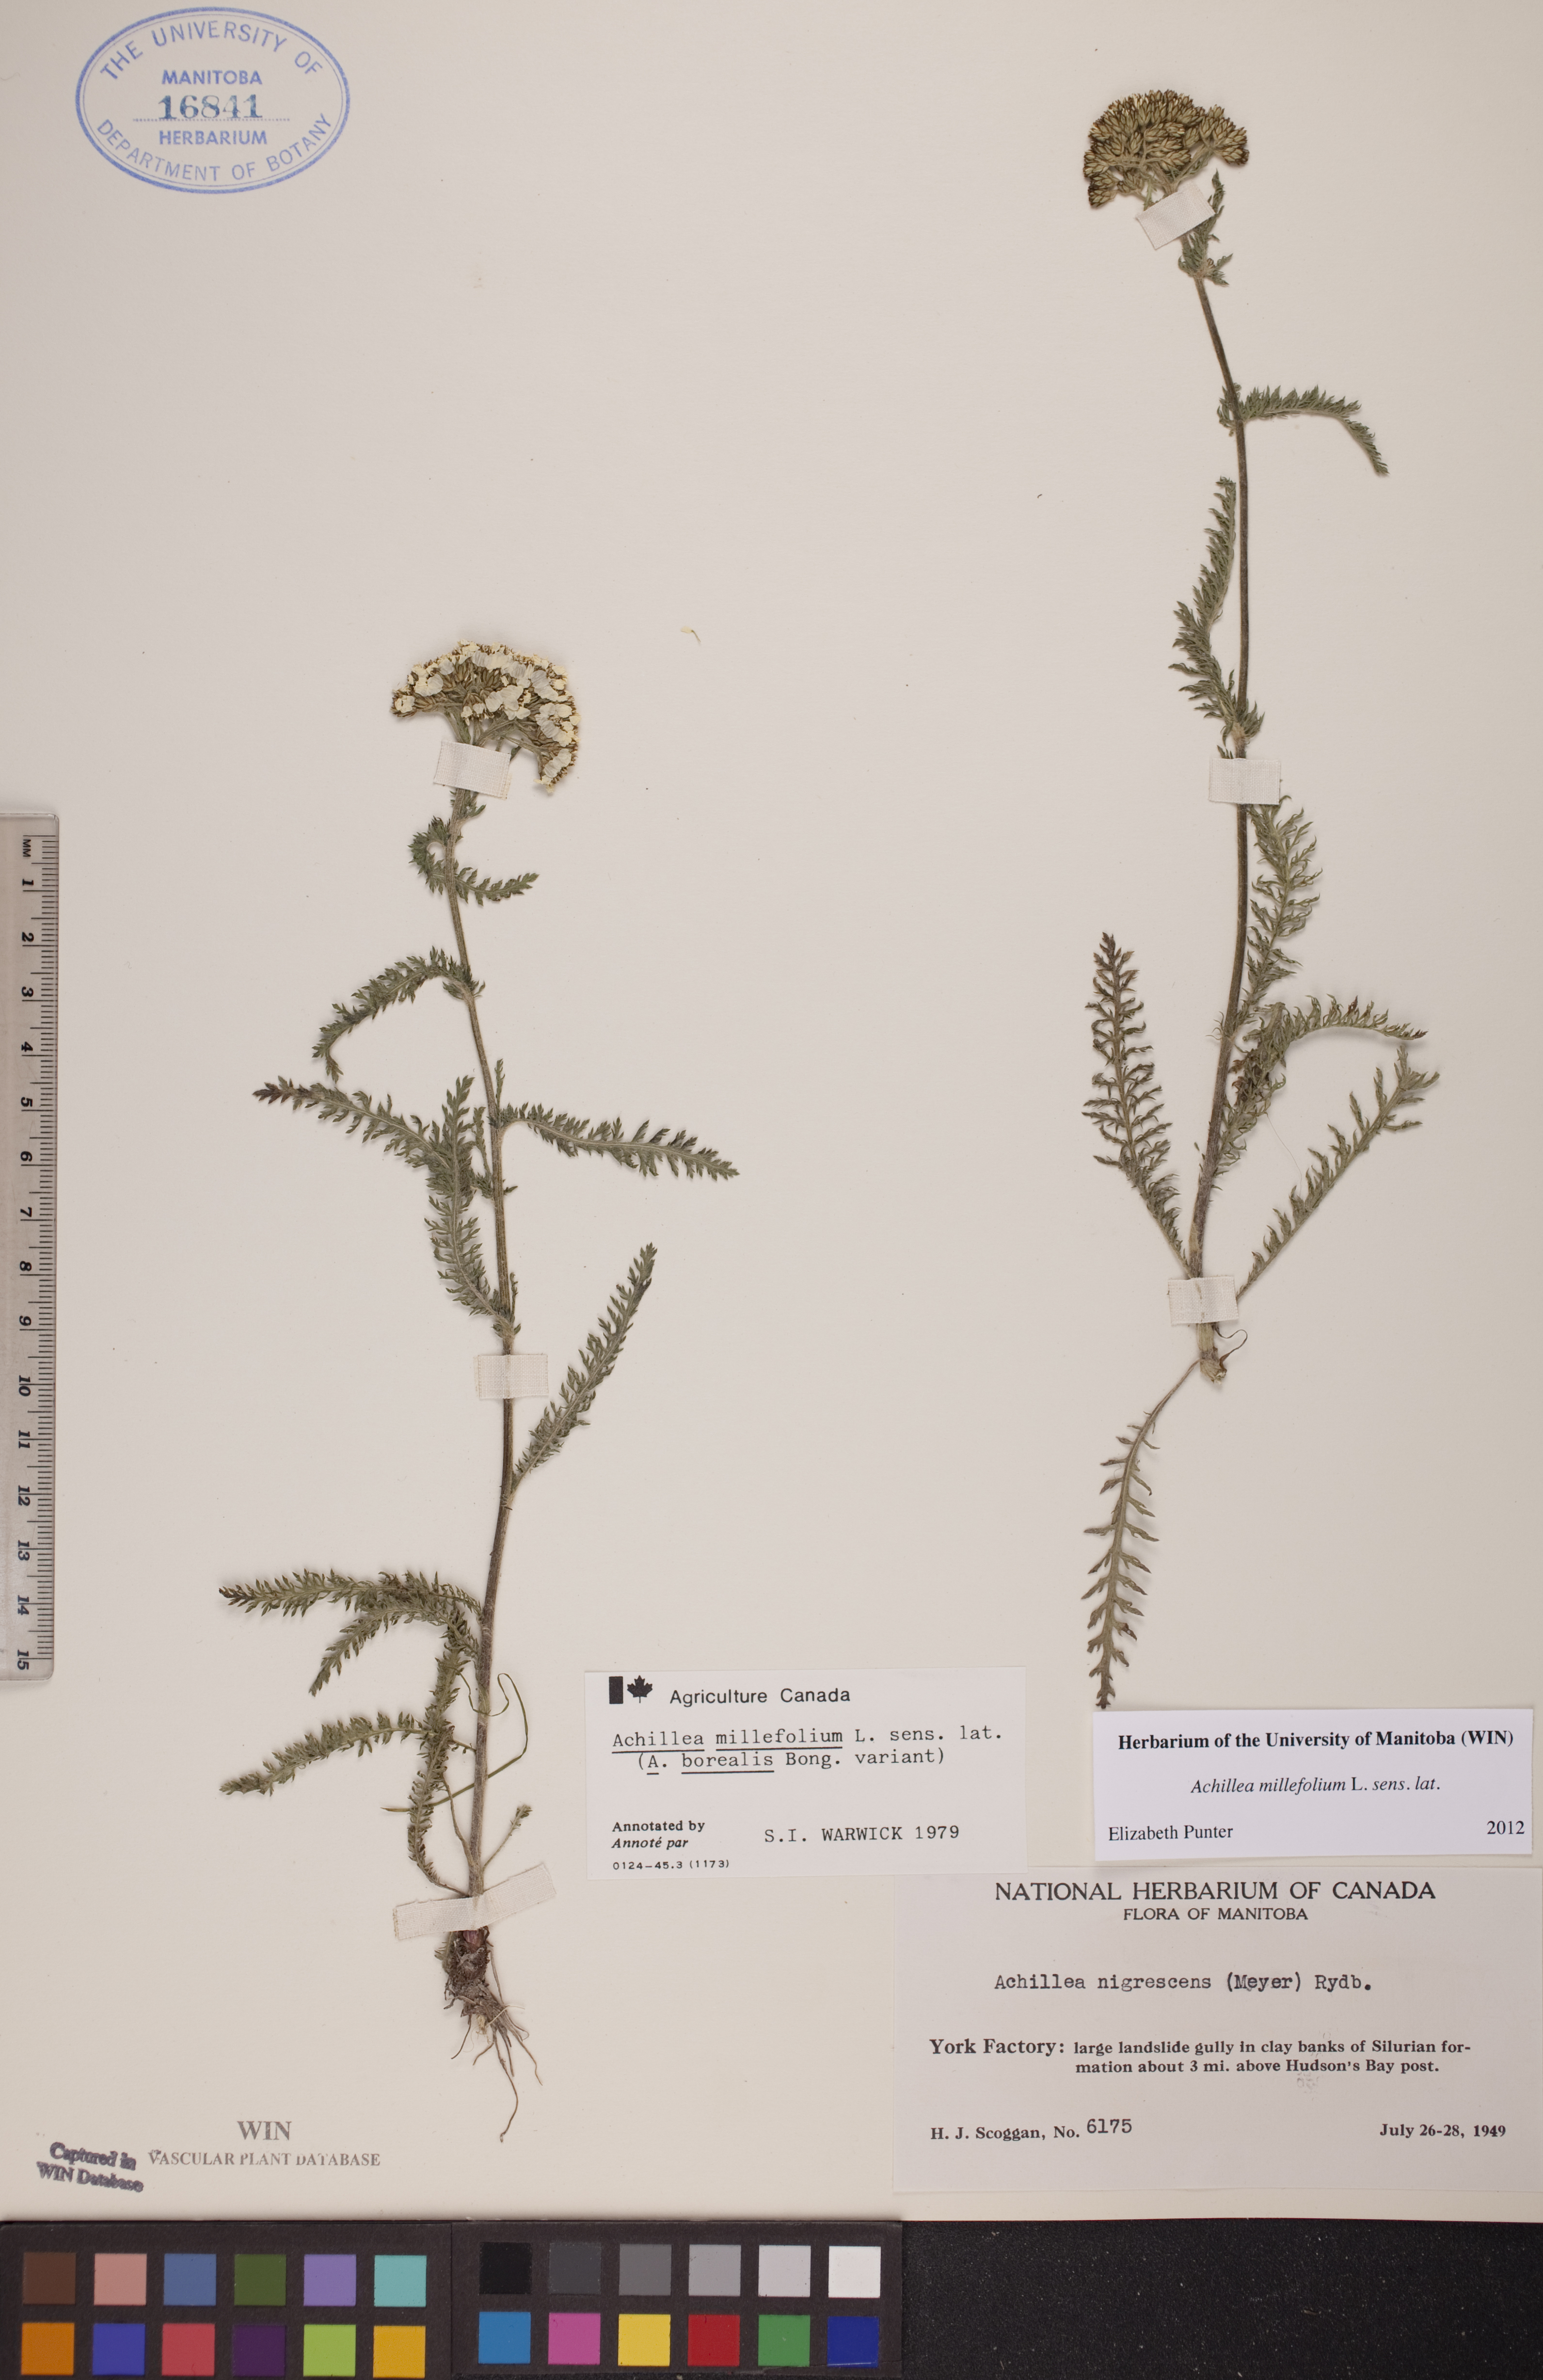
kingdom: Plantae
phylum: Tracheophyta
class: Magnoliopsida
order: Asterales
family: Asteraceae
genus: Achillea
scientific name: Achillea millefolium
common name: Yarrow
